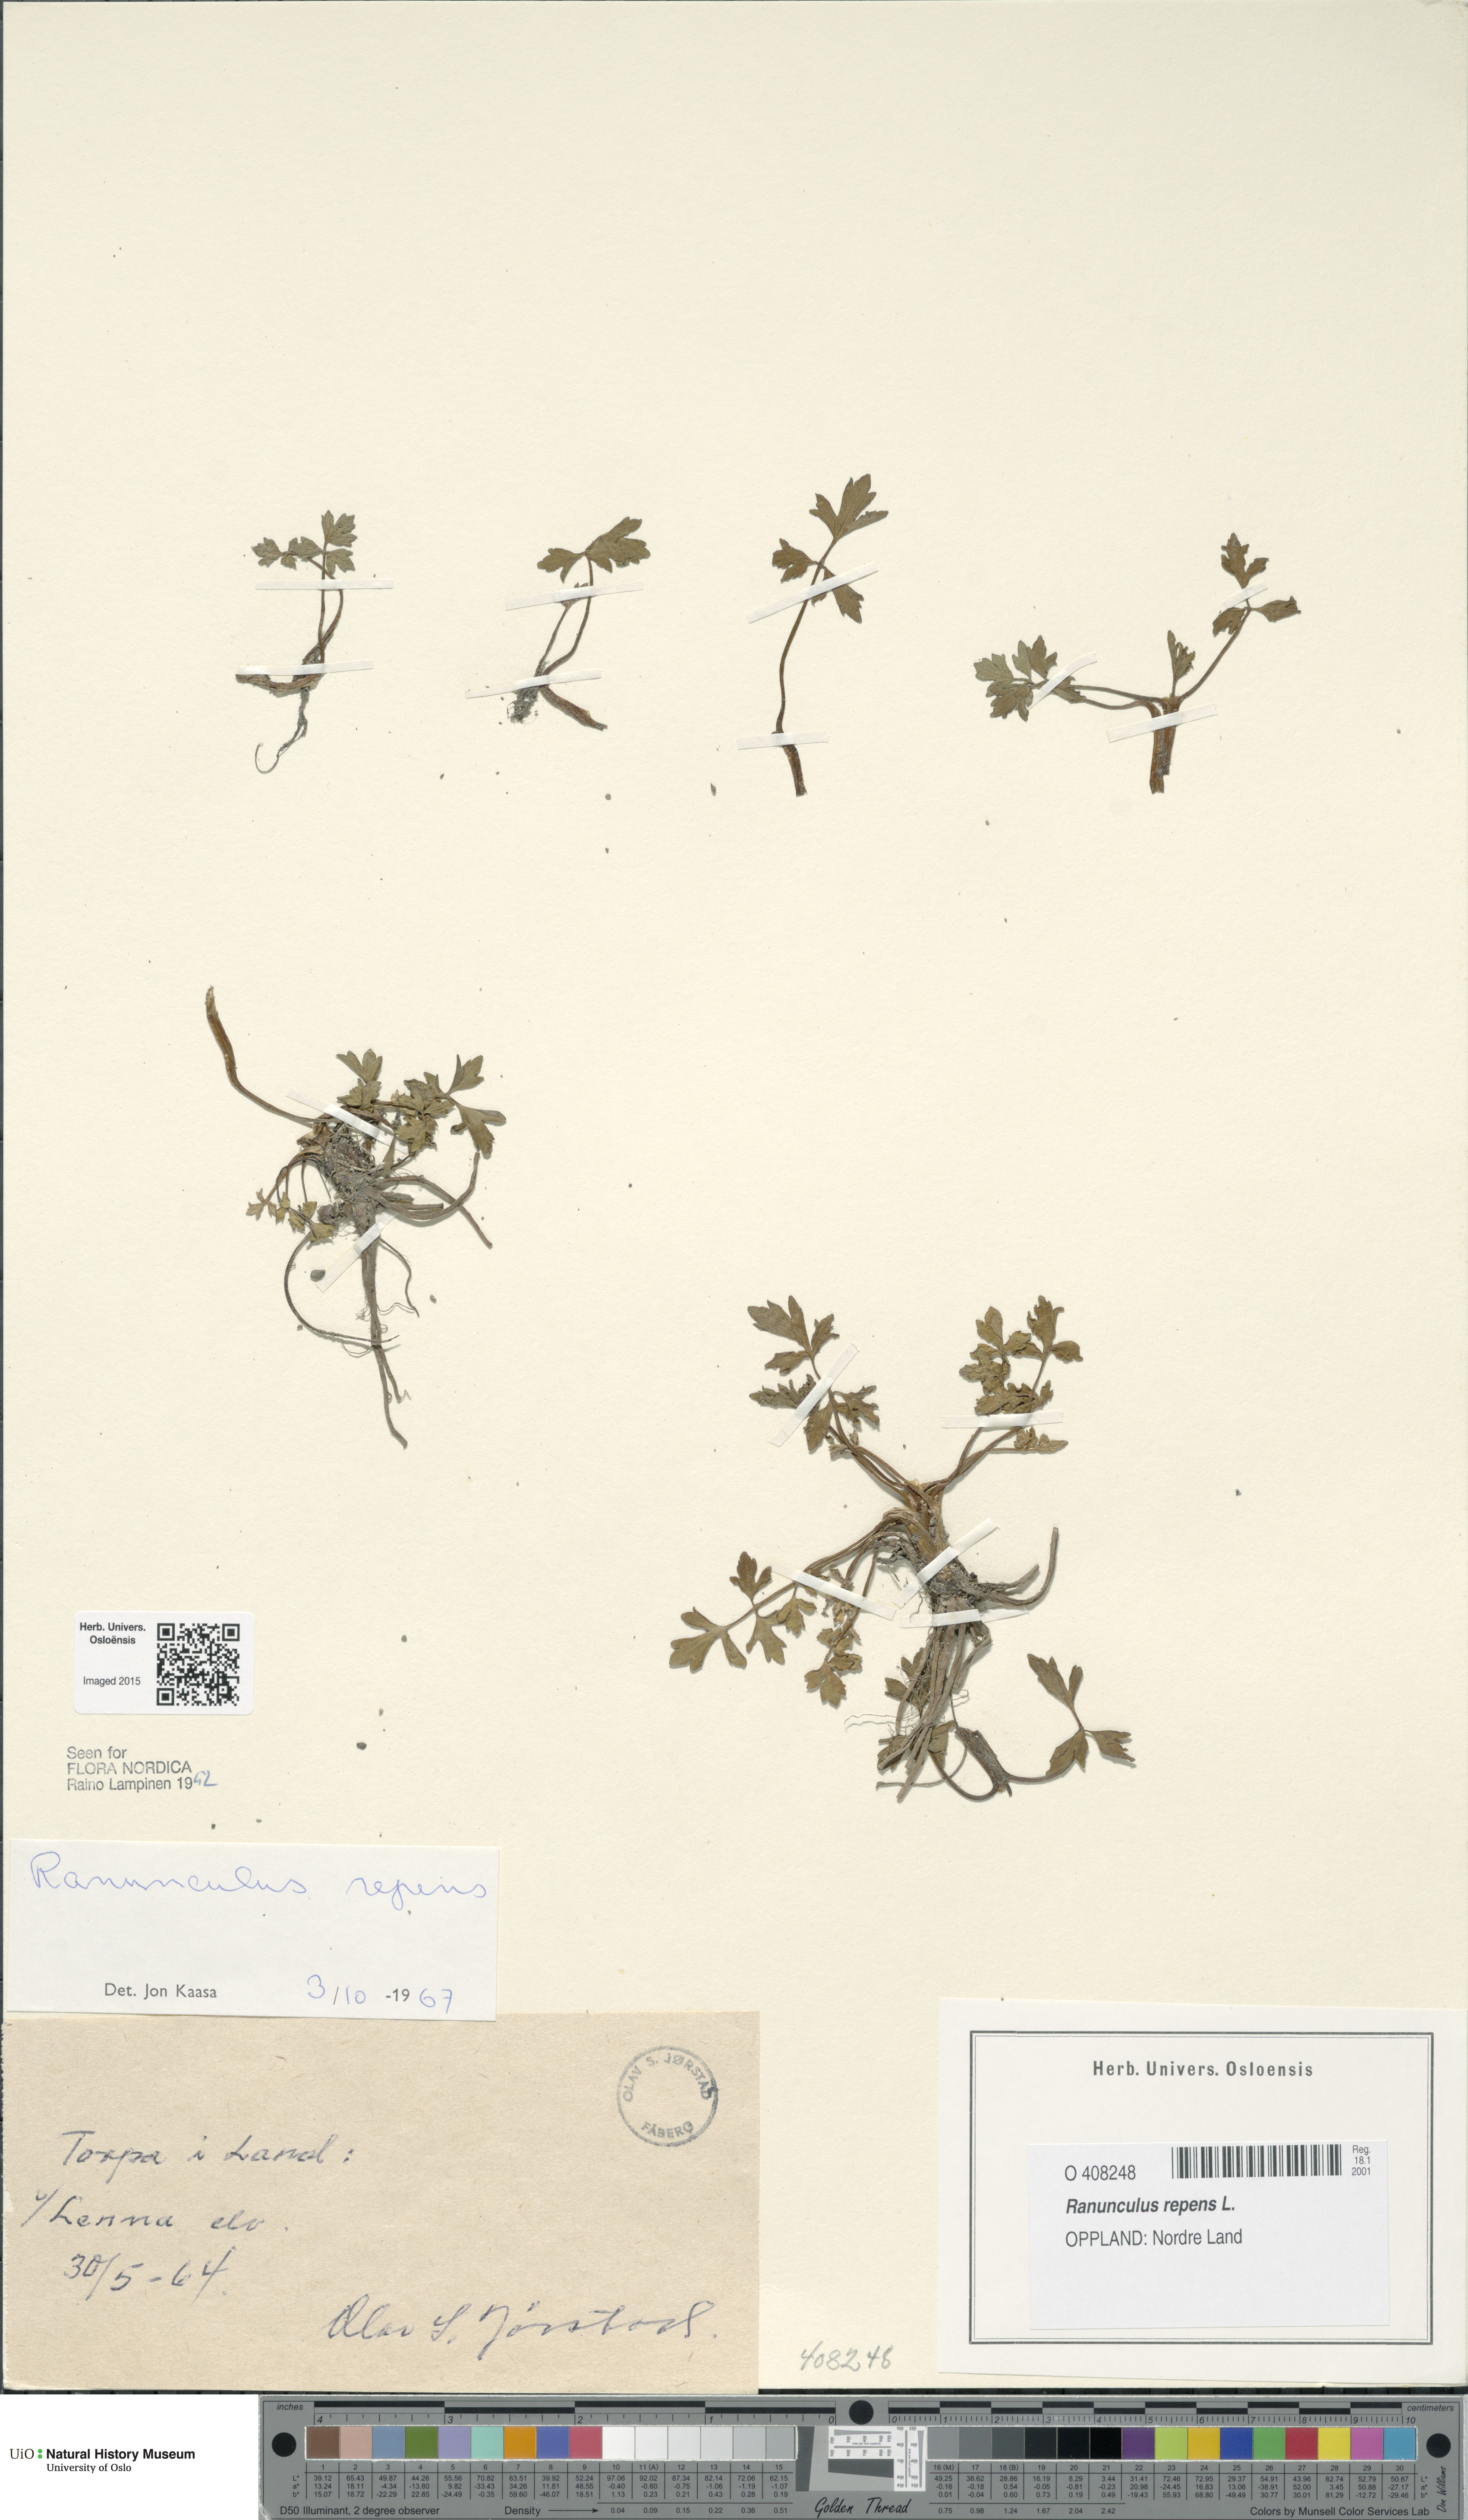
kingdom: Plantae
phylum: Tracheophyta
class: Magnoliopsida
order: Ranunculales
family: Ranunculaceae
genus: Ranunculus
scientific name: Ranunculus repens
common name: Creeping buttercup
